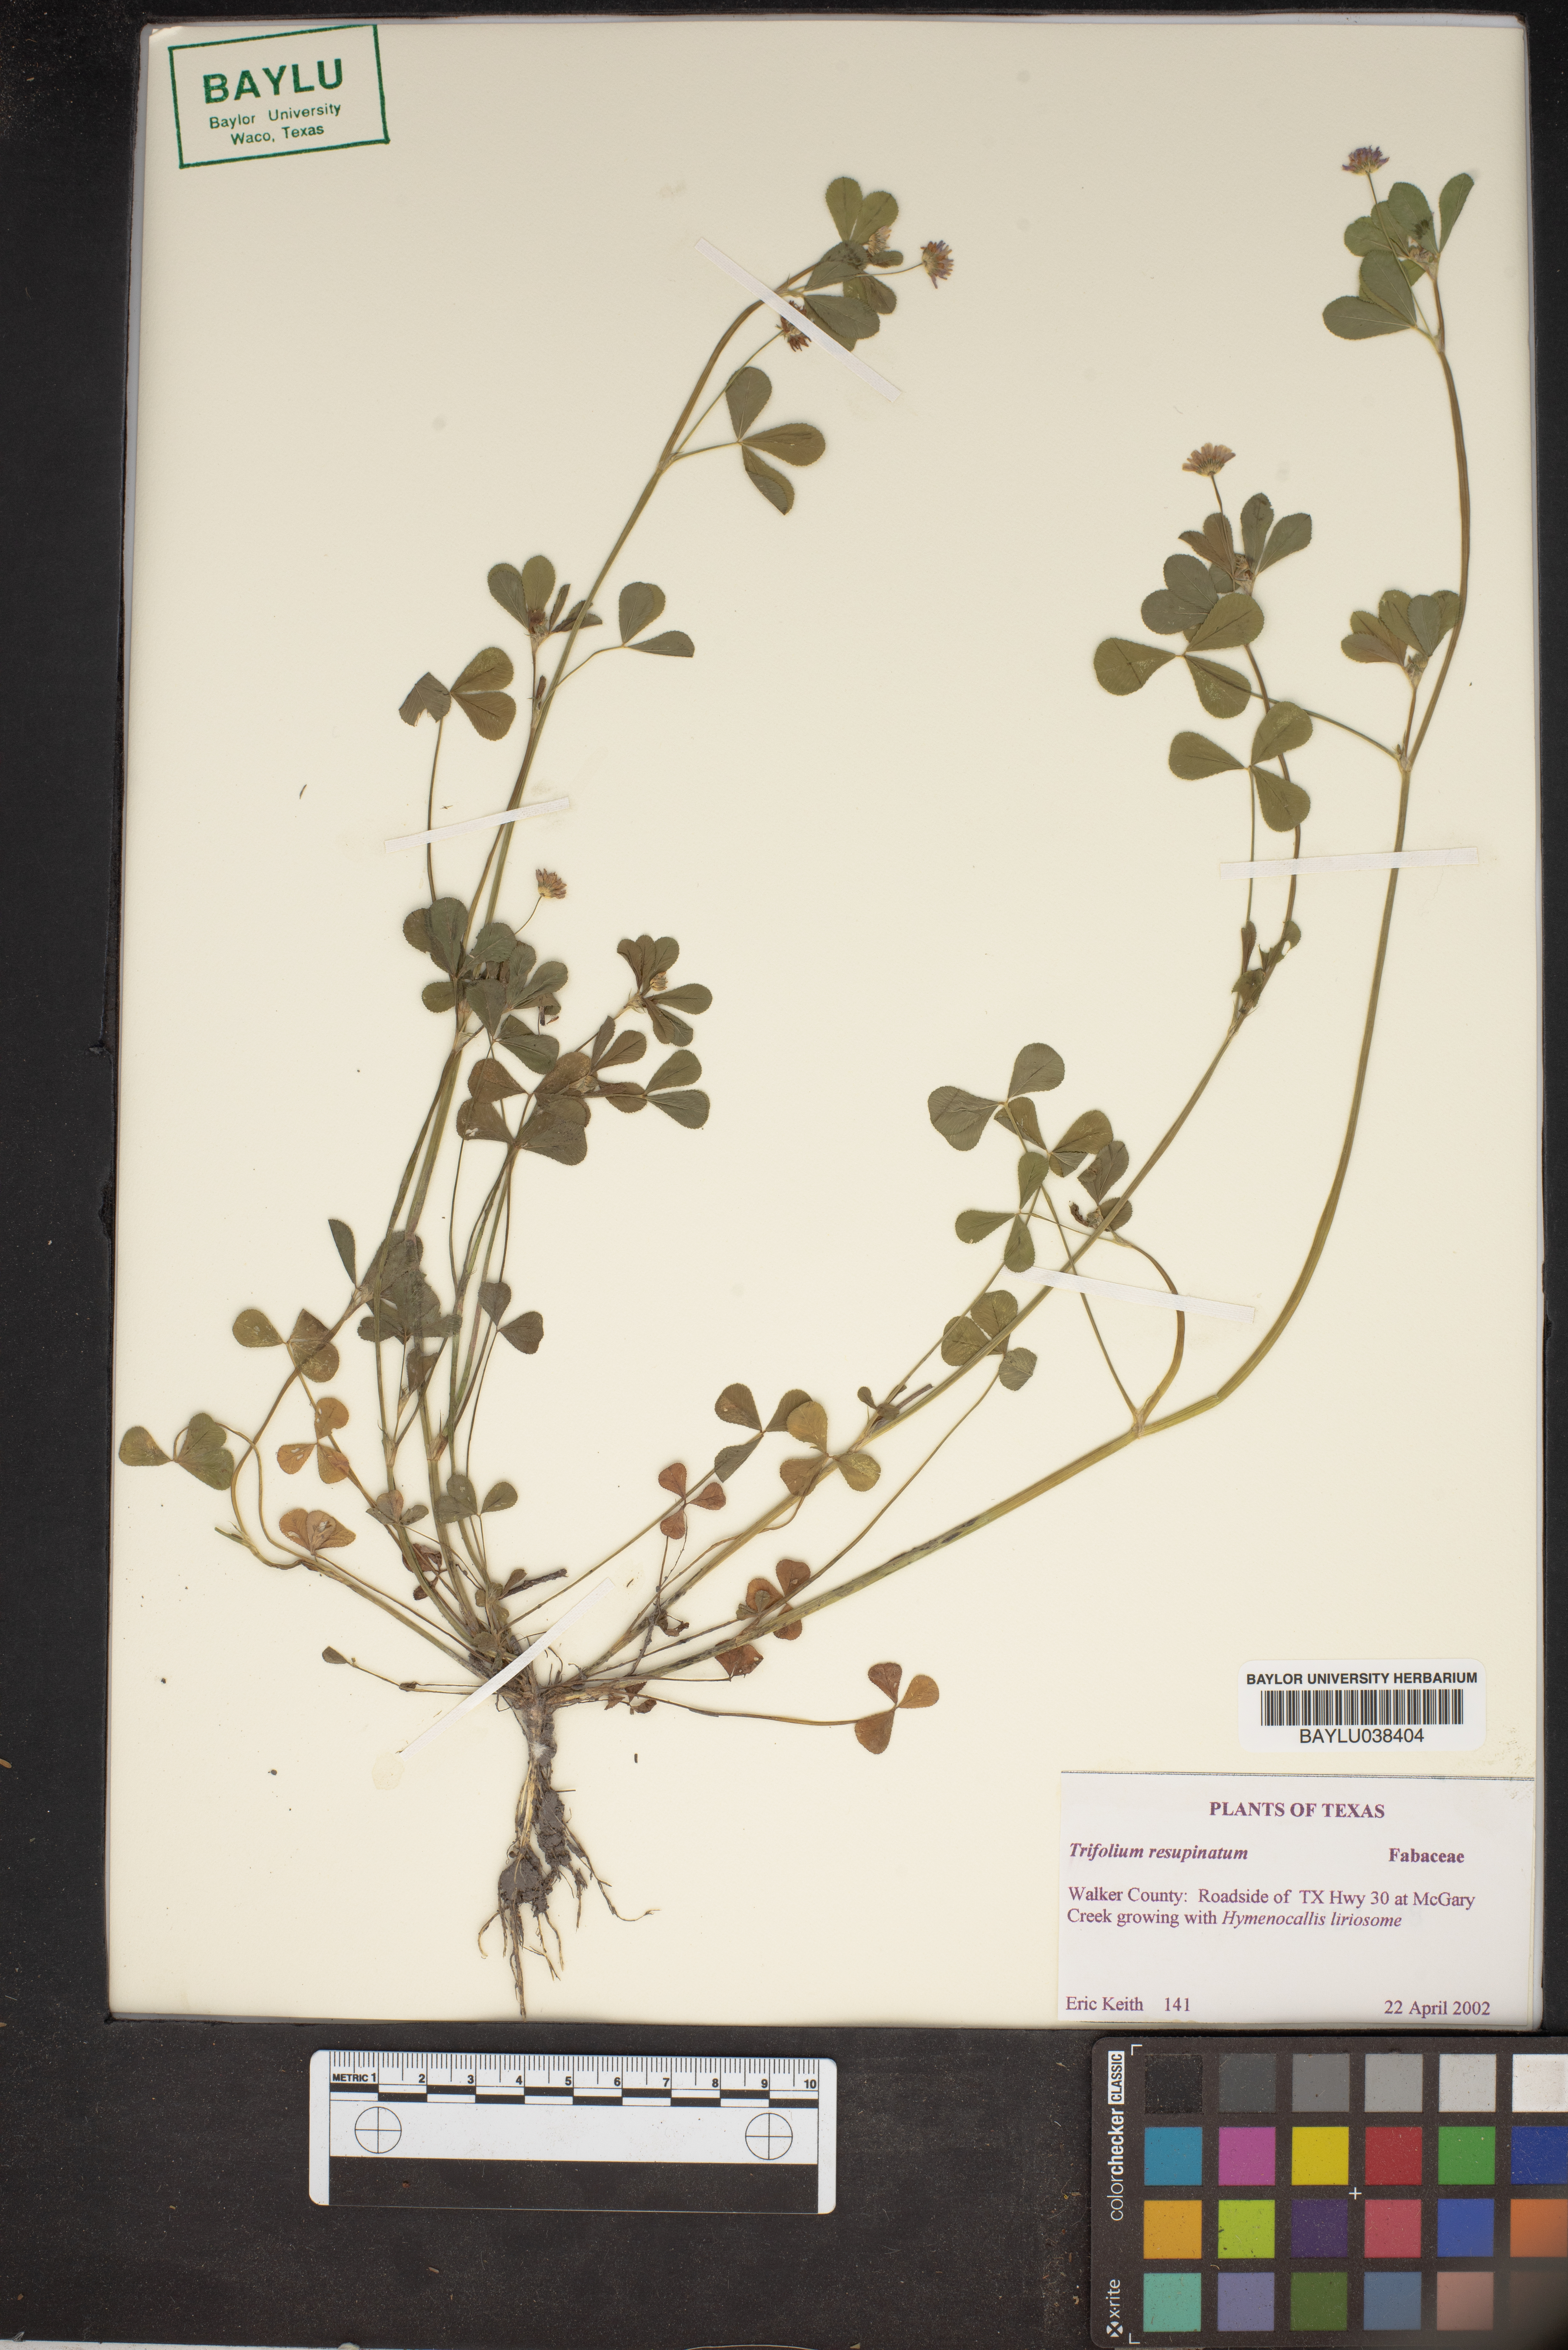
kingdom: Plantae
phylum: Tracheophyta
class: Magnoliopsida
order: Fabales
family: Fabaceae
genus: Trifolium
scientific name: Trifolium resupinatum
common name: Reversed clover
